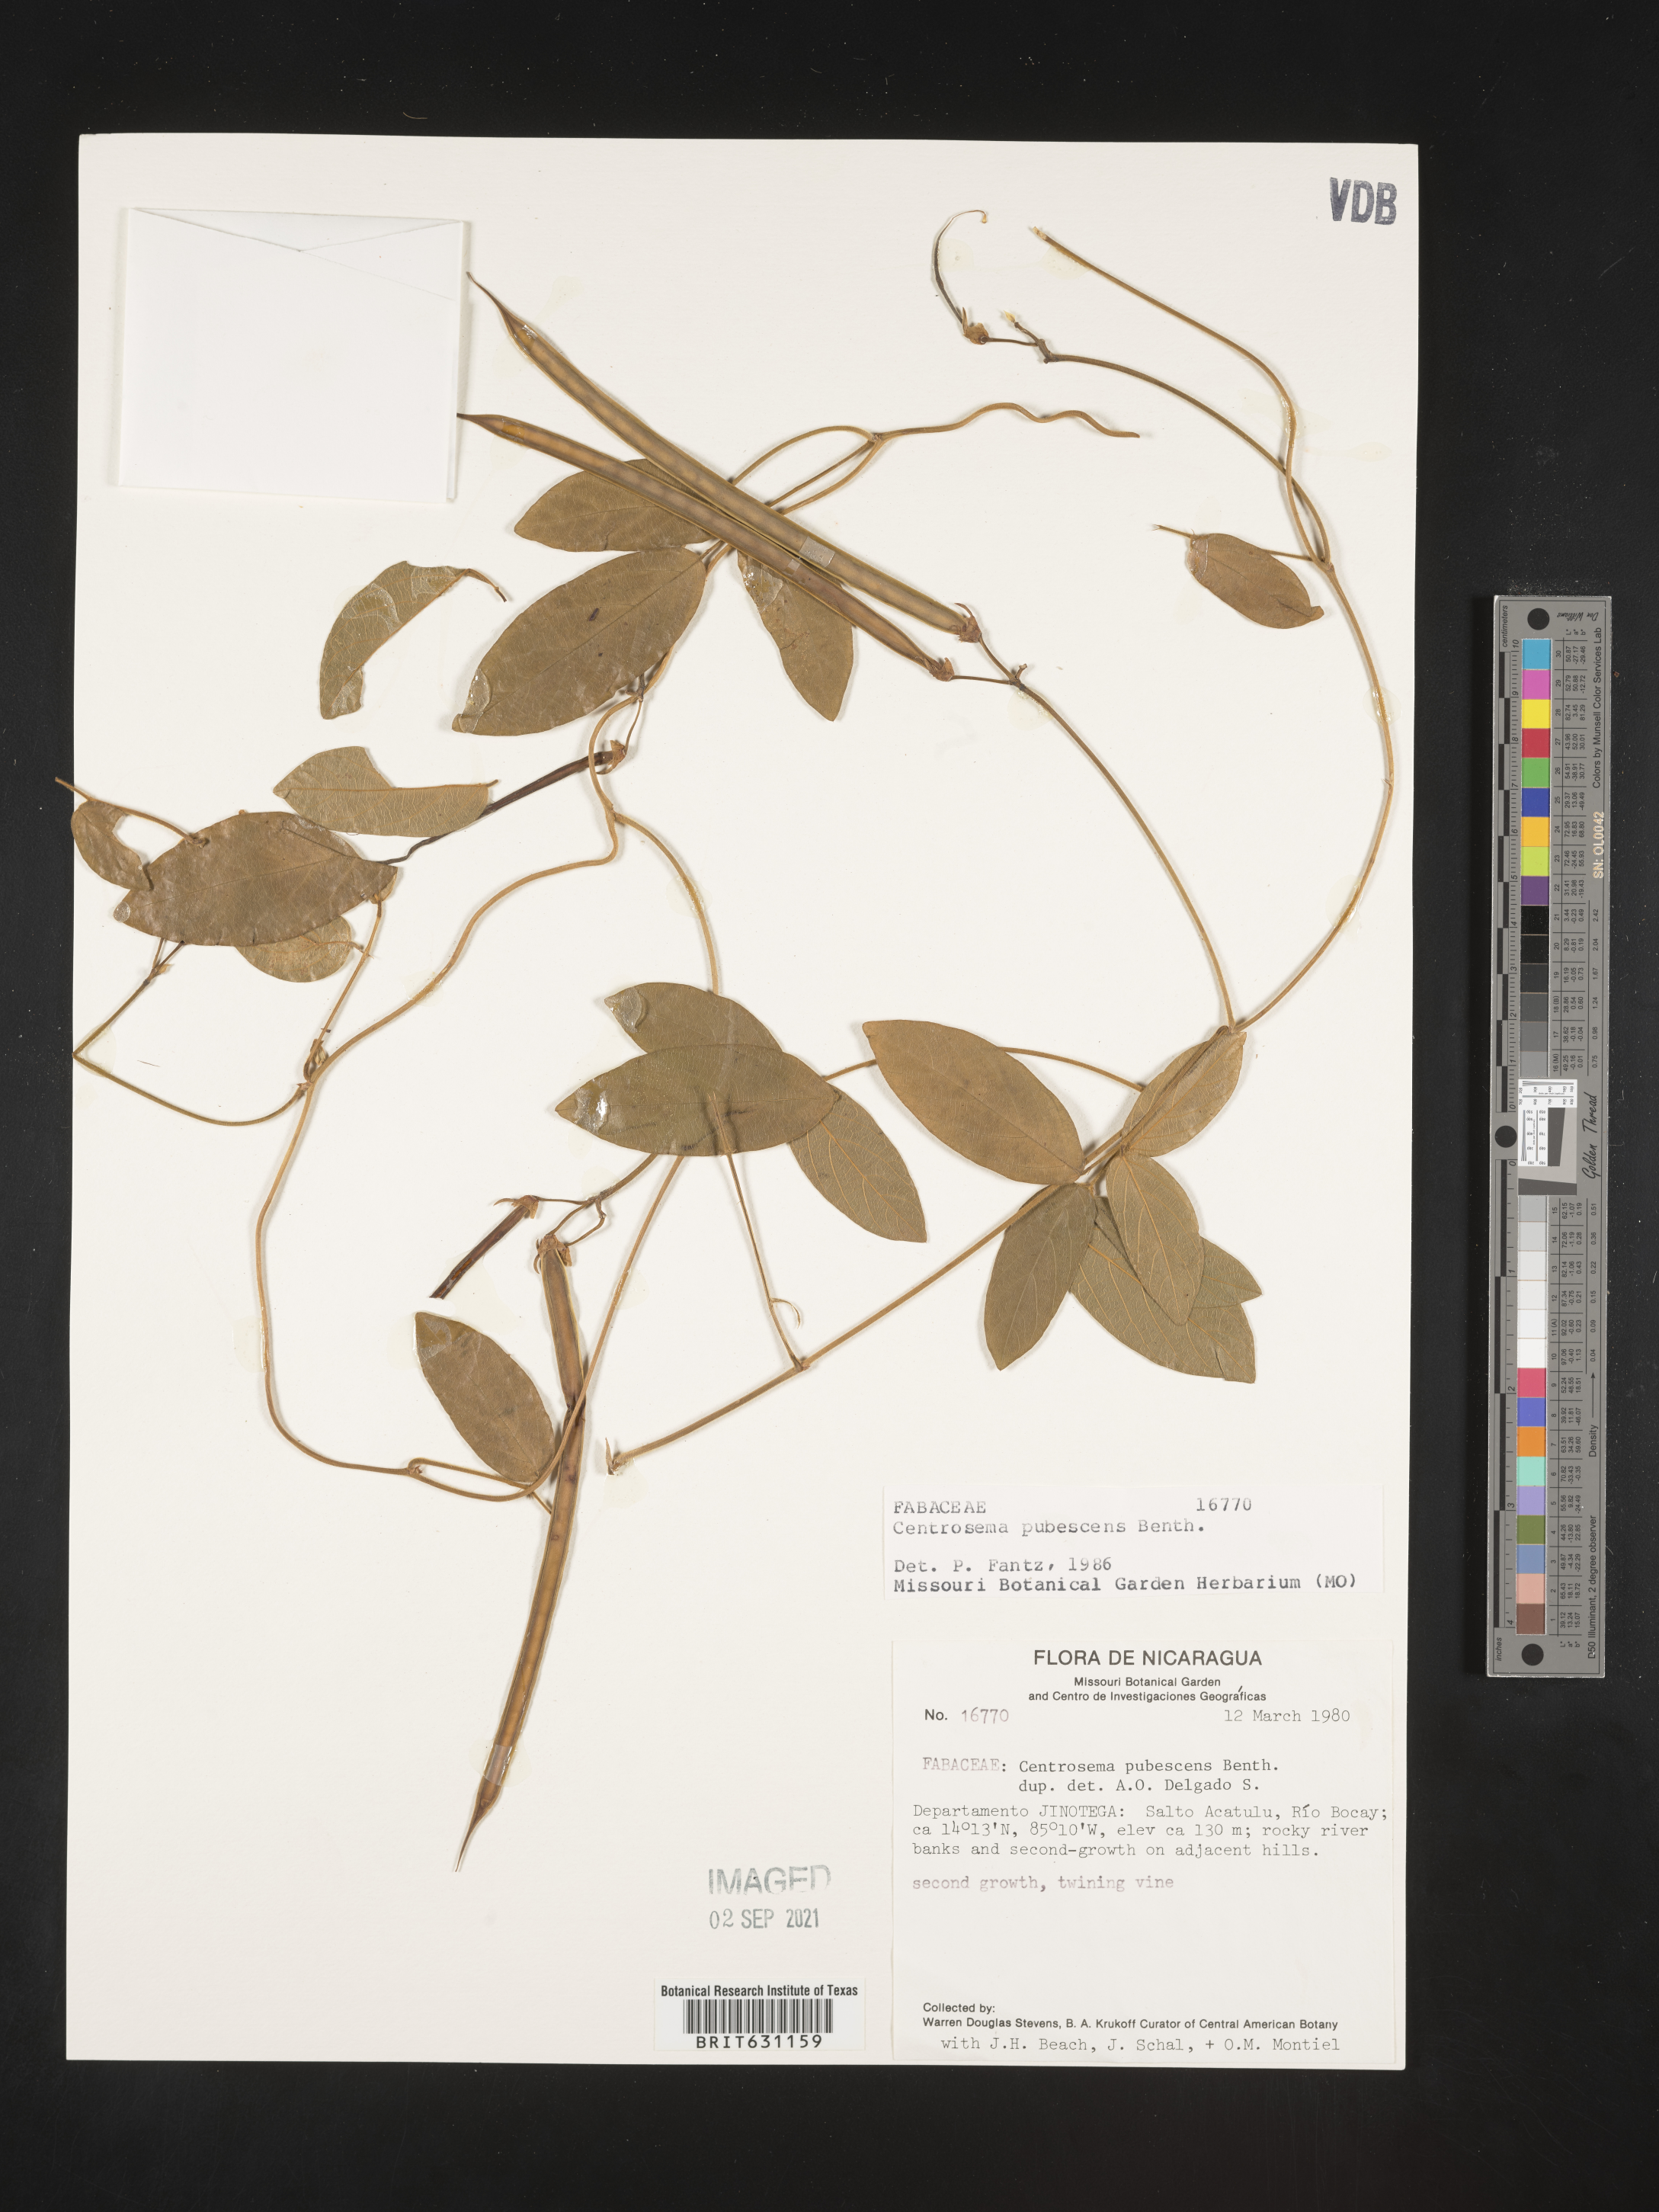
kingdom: Plantae
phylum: Tracheophyta
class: Magnoliopsida
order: Fabales
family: Fabaceae
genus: Centrosema
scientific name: Centrosema pubescens
